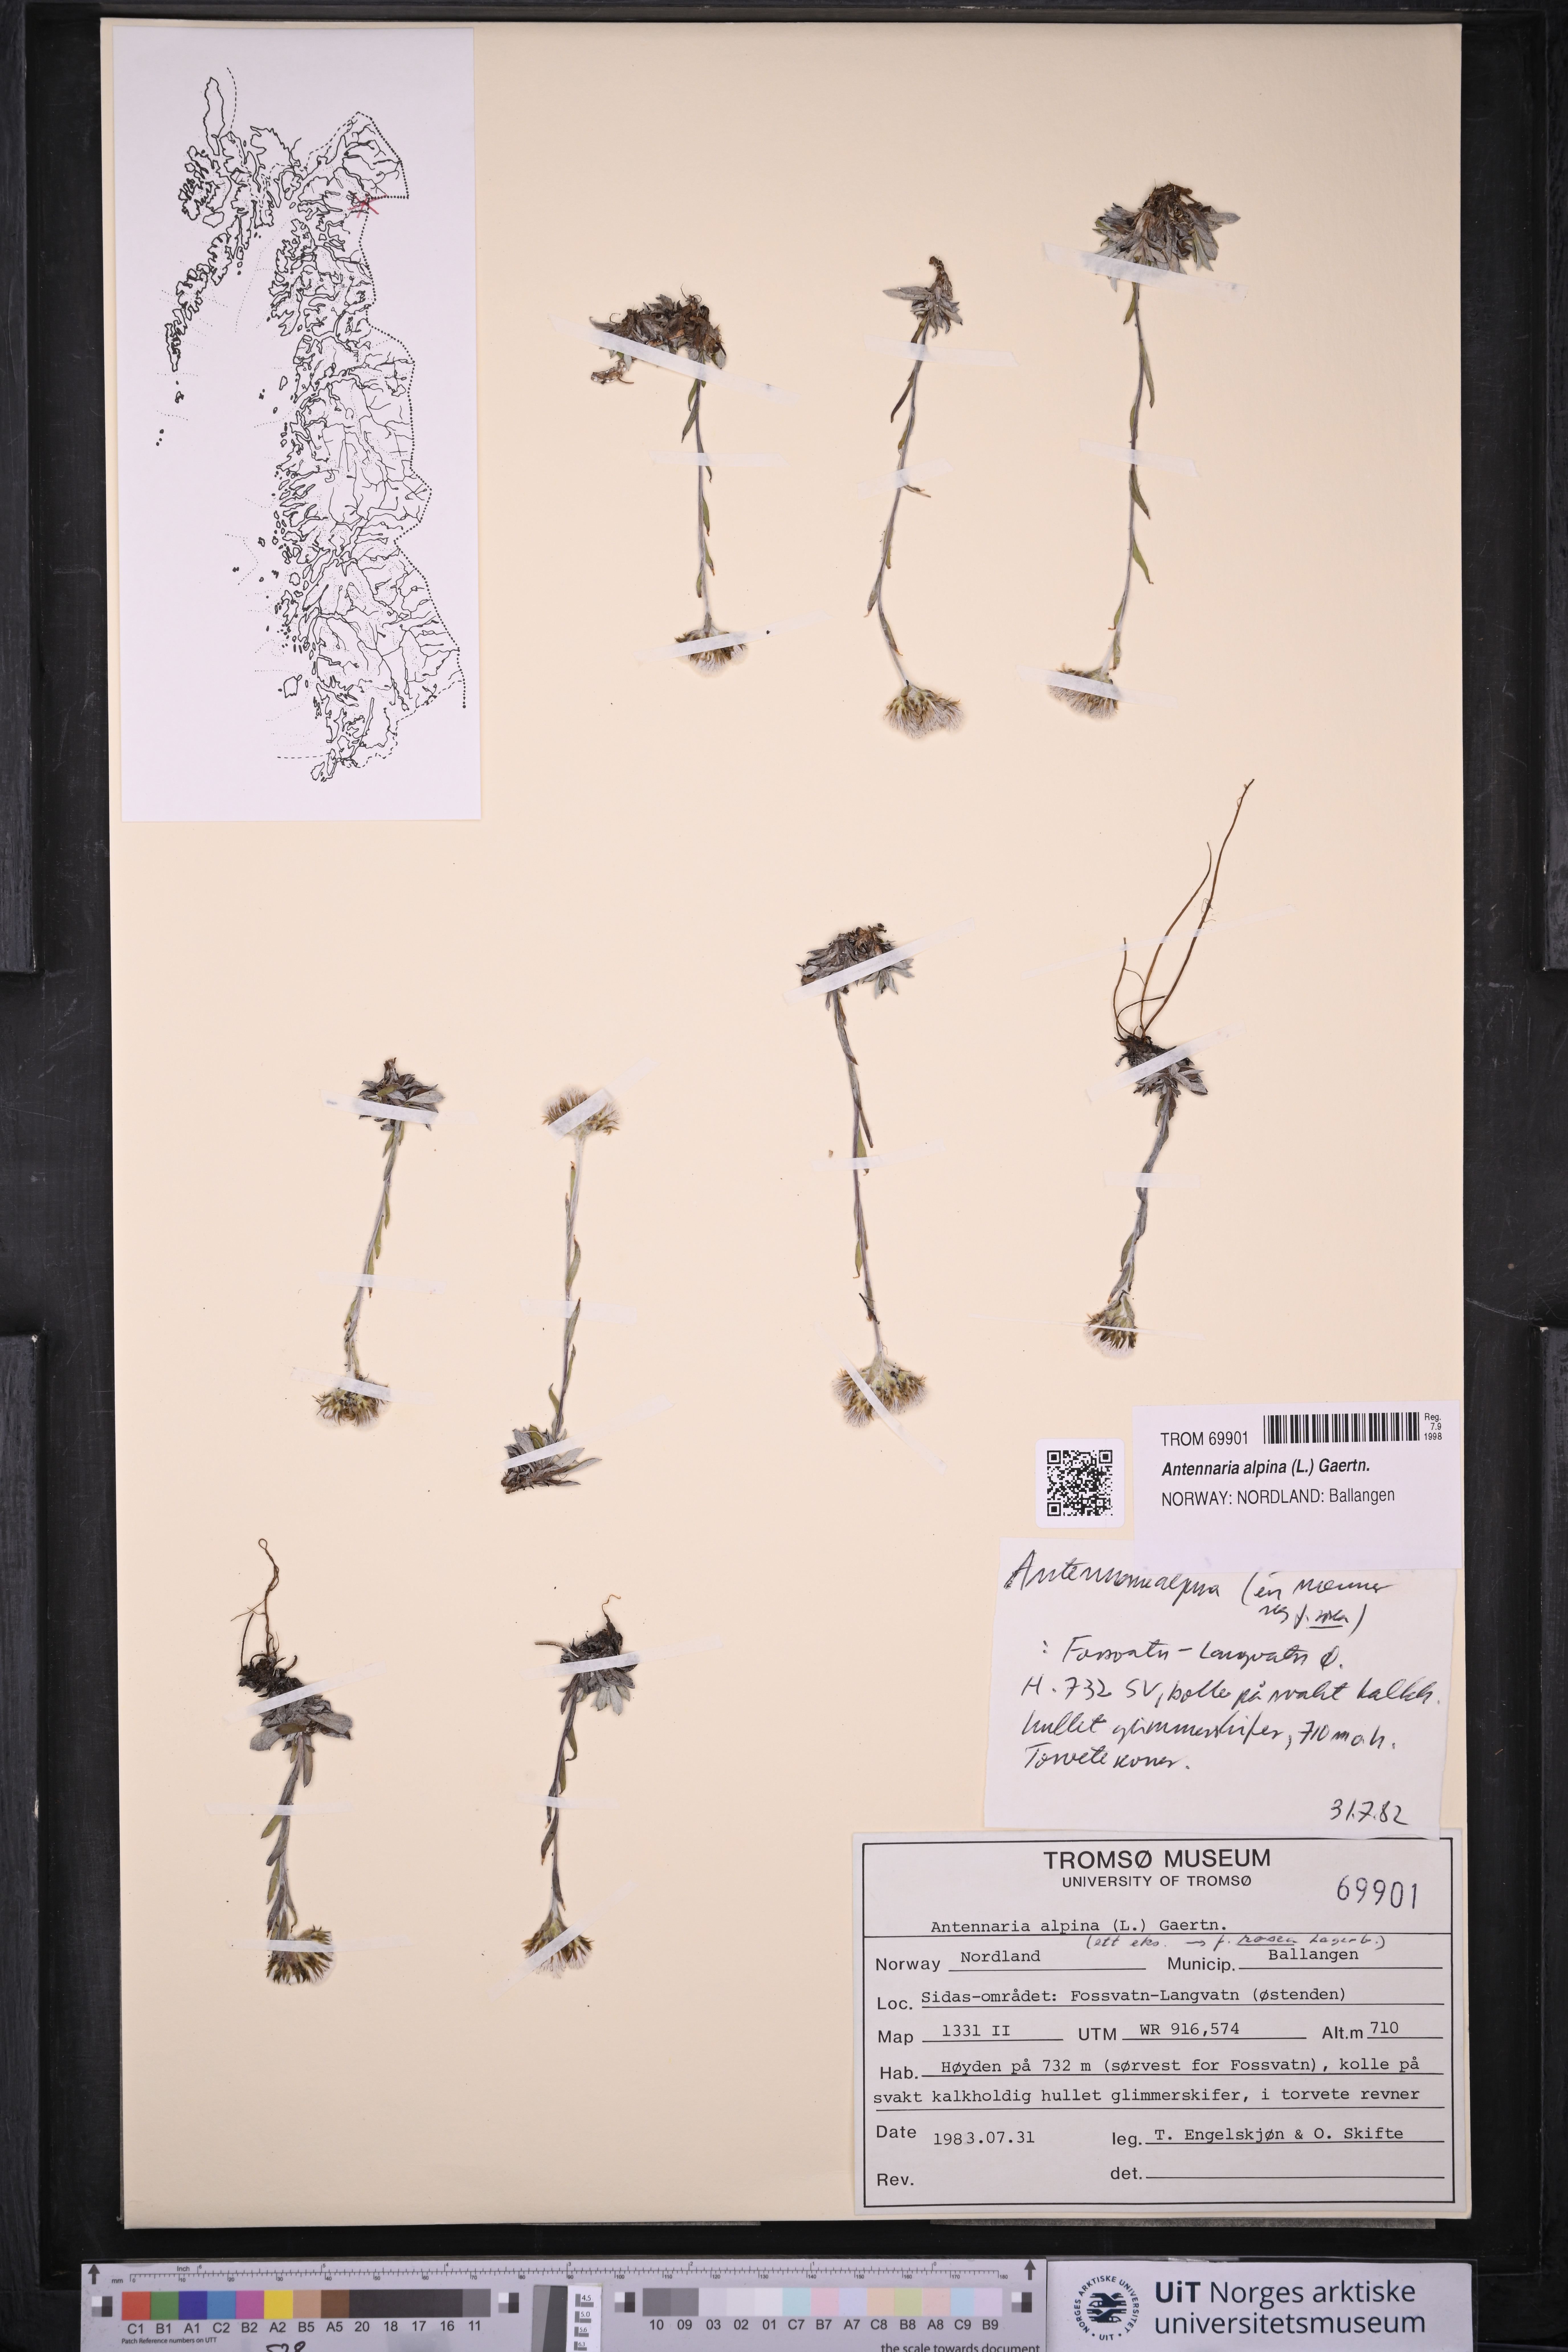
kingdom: Plantae
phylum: Tracheophyta
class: Magnoliopsida
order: Asterales
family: Asteraceae
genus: Antennaria
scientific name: Antennaria alpina
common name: Alpine pussytoes
